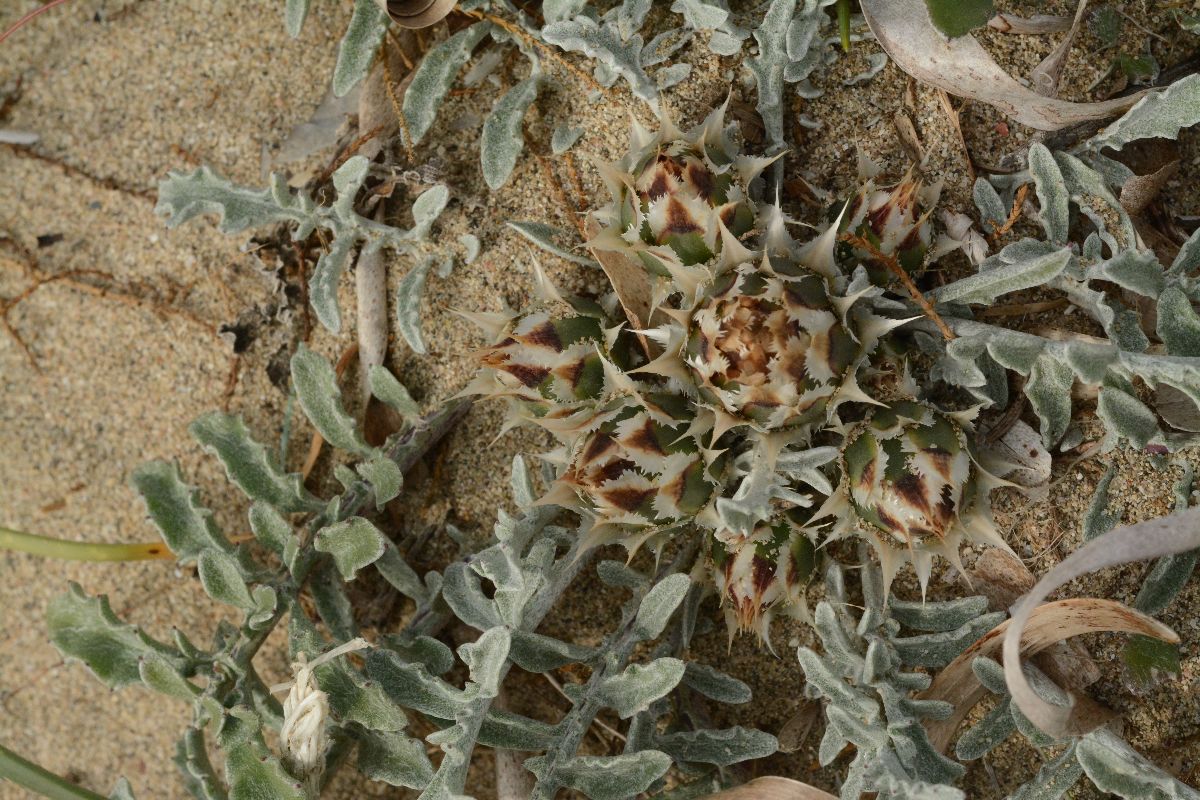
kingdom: Plantae
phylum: Tracheophyta
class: Magnoliopsida
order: Asterales
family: Asteraceae
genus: Crocodilium
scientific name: Crocodilium pumilio
